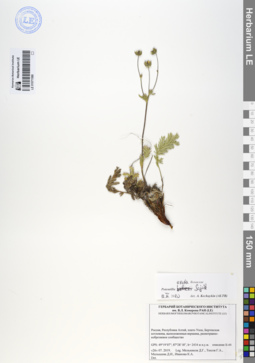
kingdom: Plantae
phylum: Tracheophyta
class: Magnoliopsida
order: Rosales
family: Rosaceae
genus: Potentilla
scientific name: Potentilla exuta
